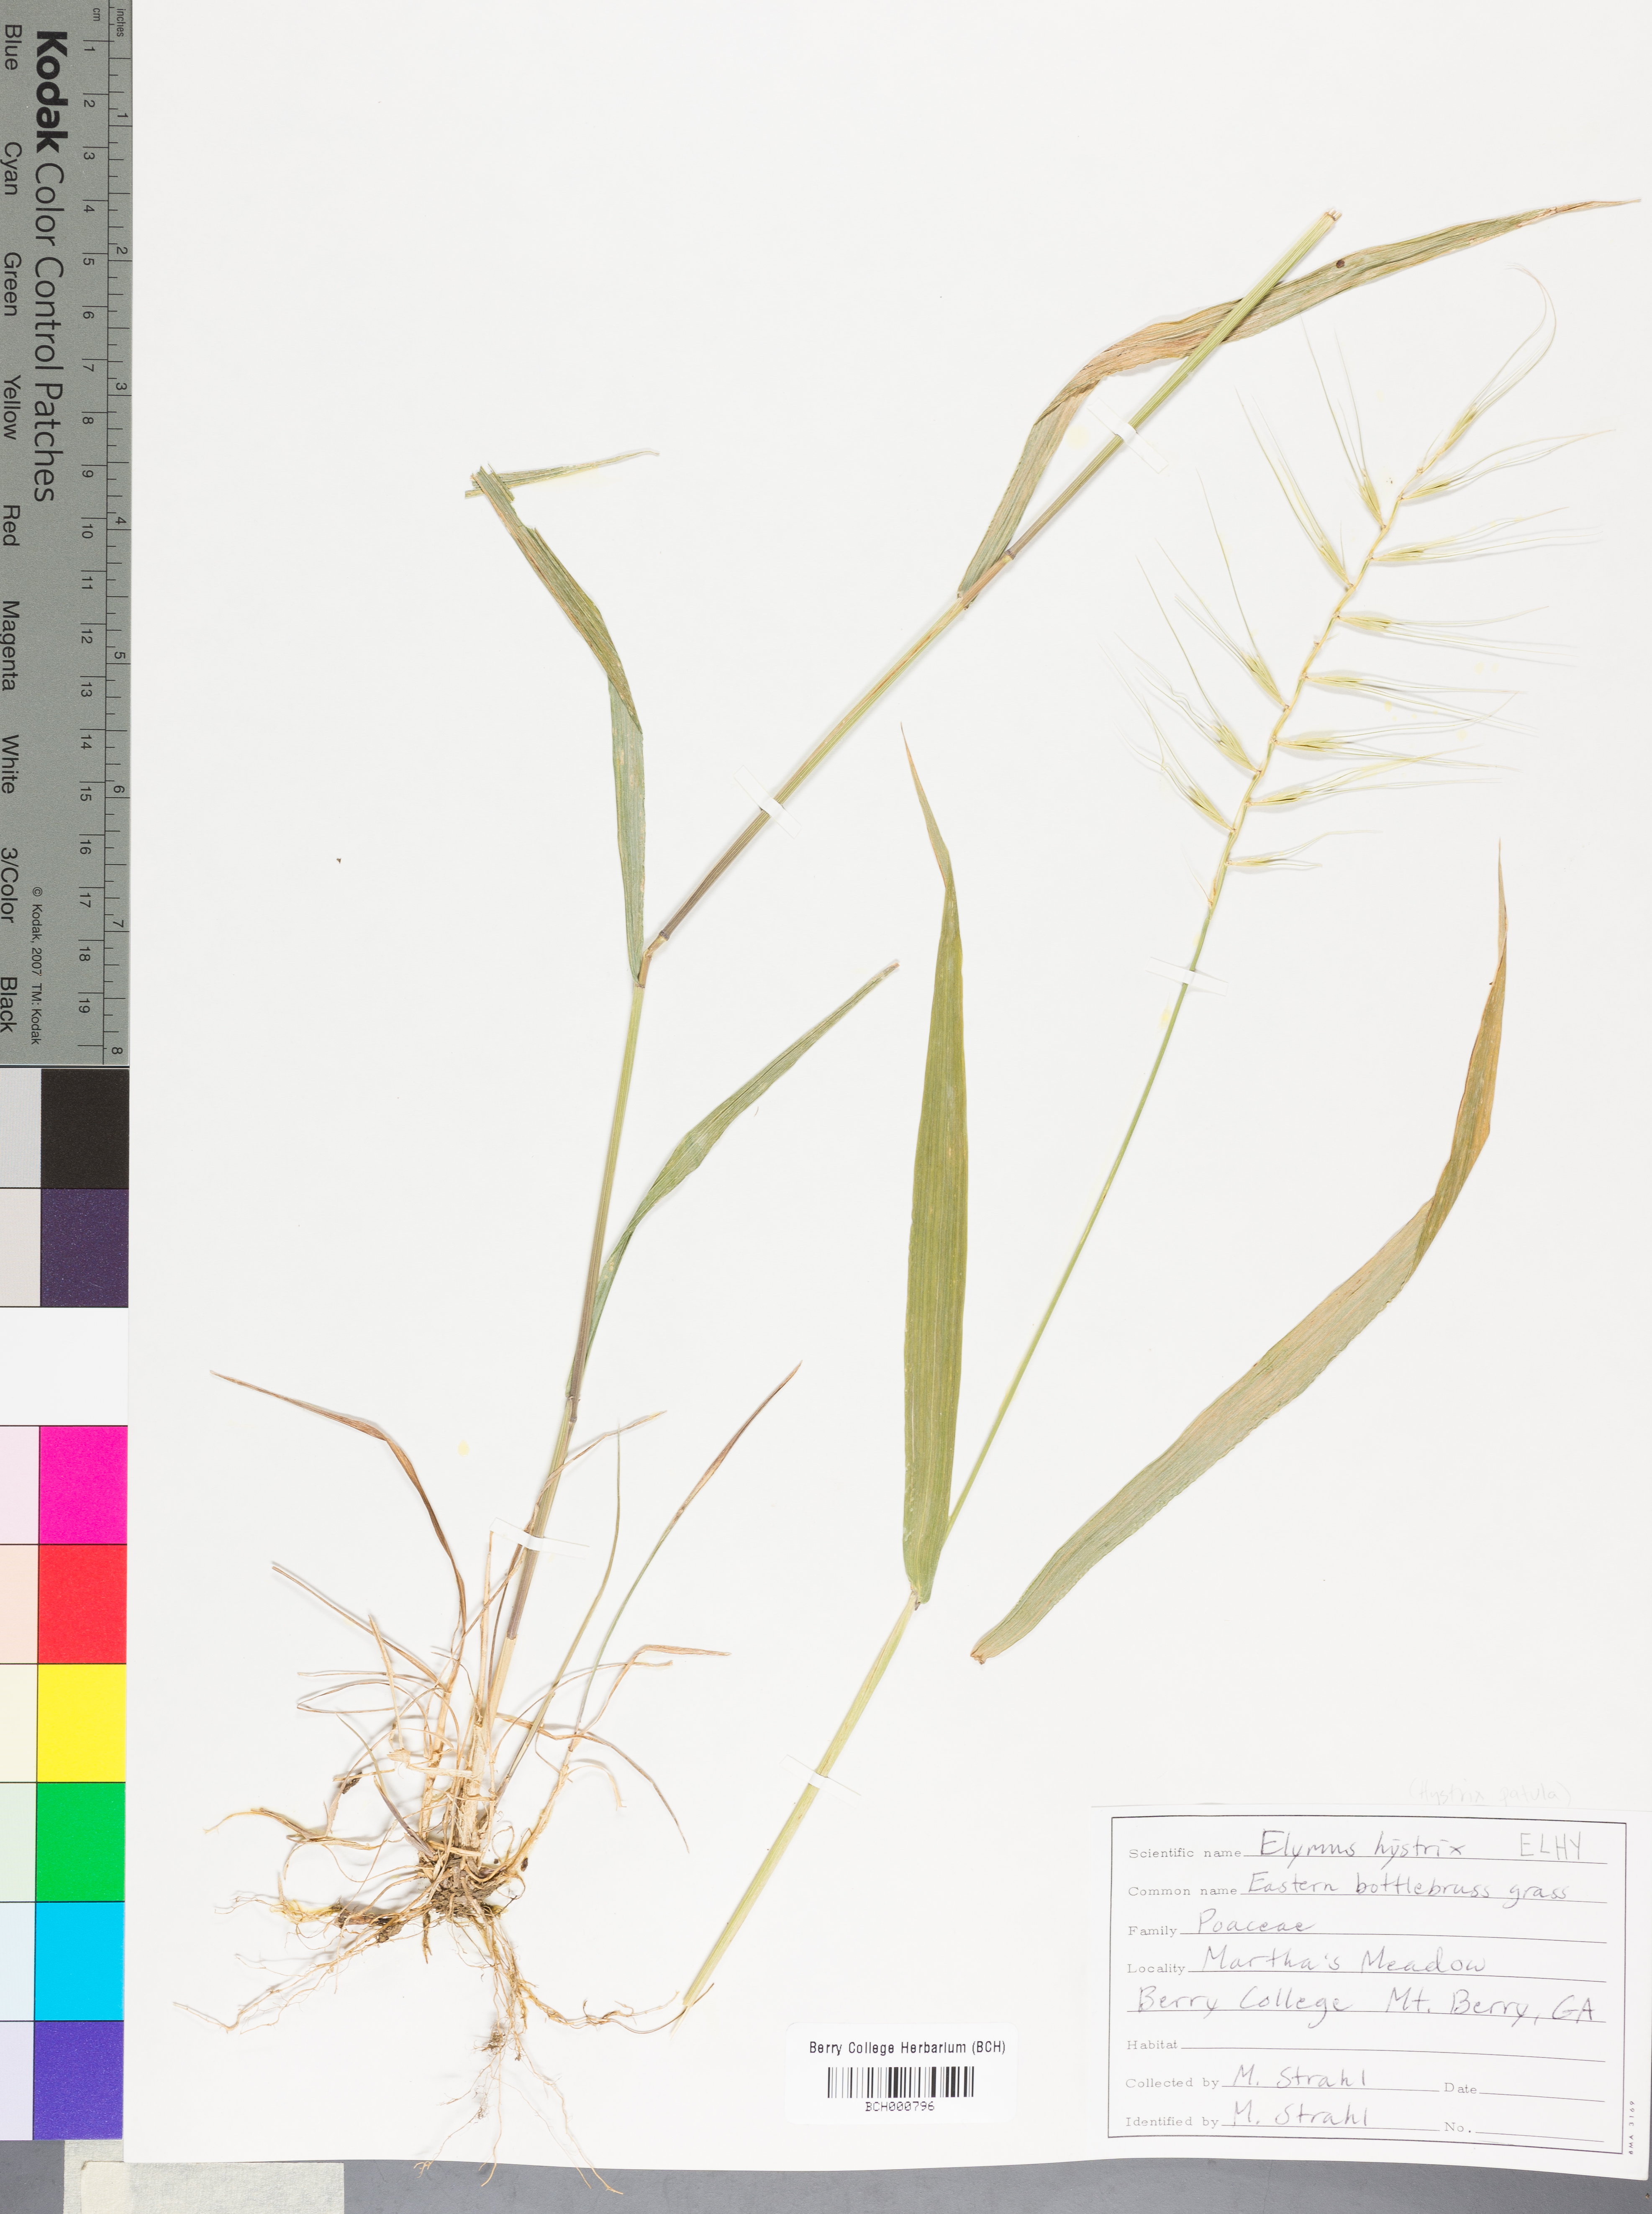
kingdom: Plantae
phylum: Tracheophyta
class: Liliopsida
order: Poales
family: Poaceae
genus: Elymus
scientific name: Elymus hystrix
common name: Bottlebrush grass
